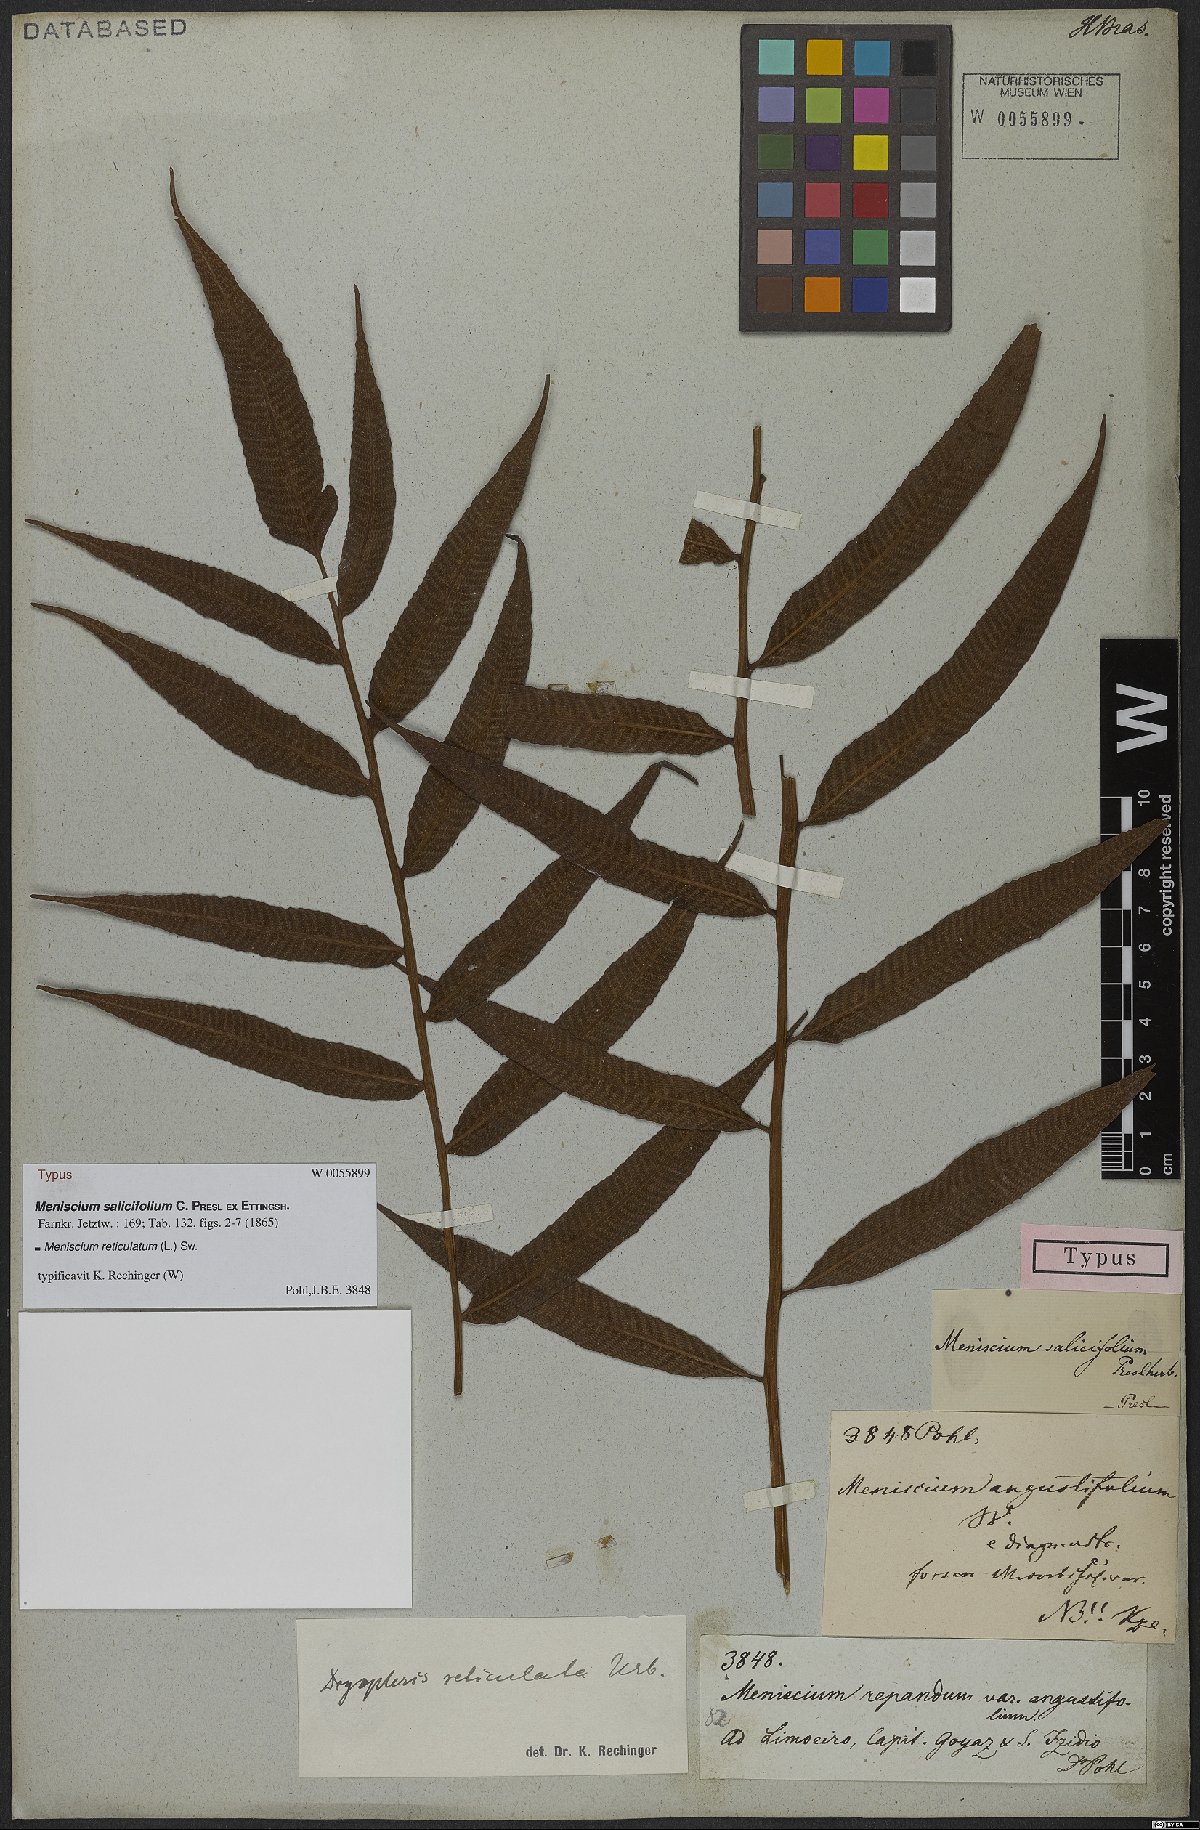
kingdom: Plantae
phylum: Tracheophyta
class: Polypodiopsida
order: Polypodiales
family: Thelypteridaceae
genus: Meniscium
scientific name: Meniscium reticulatum
